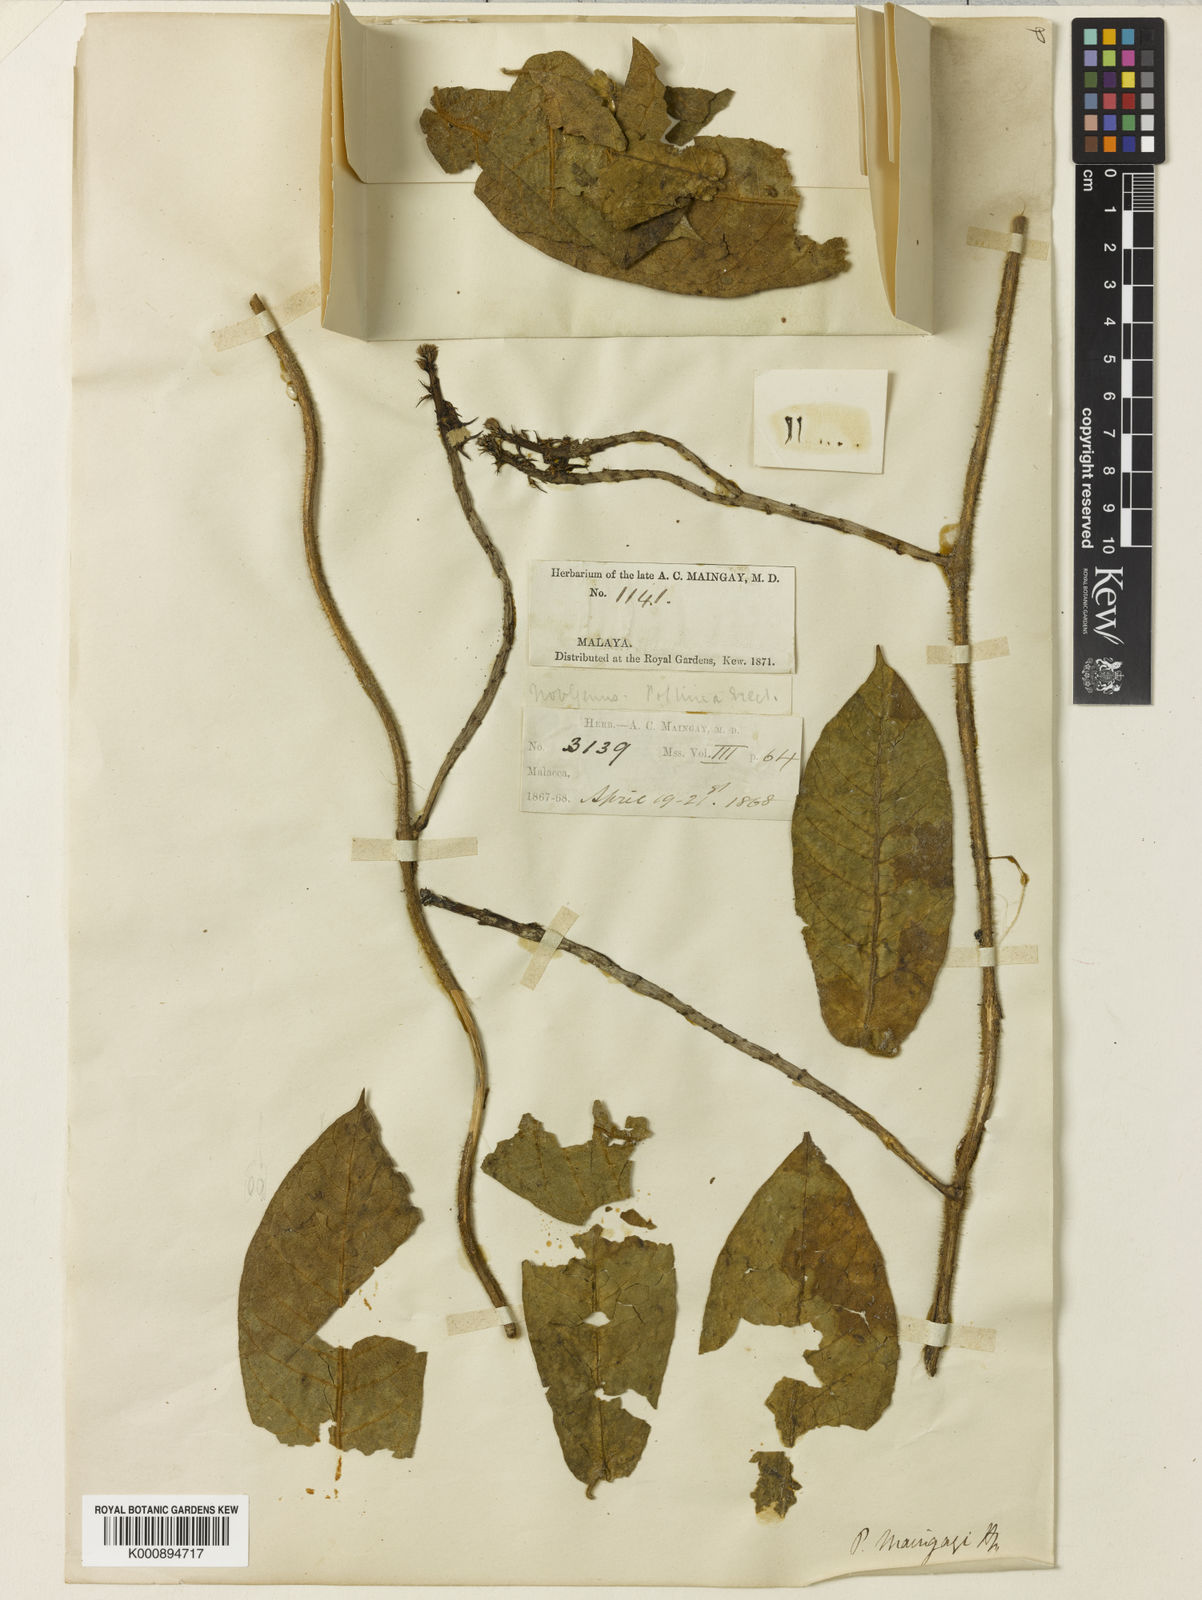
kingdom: Plantae
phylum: Tracheophyta
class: Magnoliopsida
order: Gentianales
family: Apocynaceae
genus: Pycnorhachis
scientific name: Pycnorhachis maingayi
